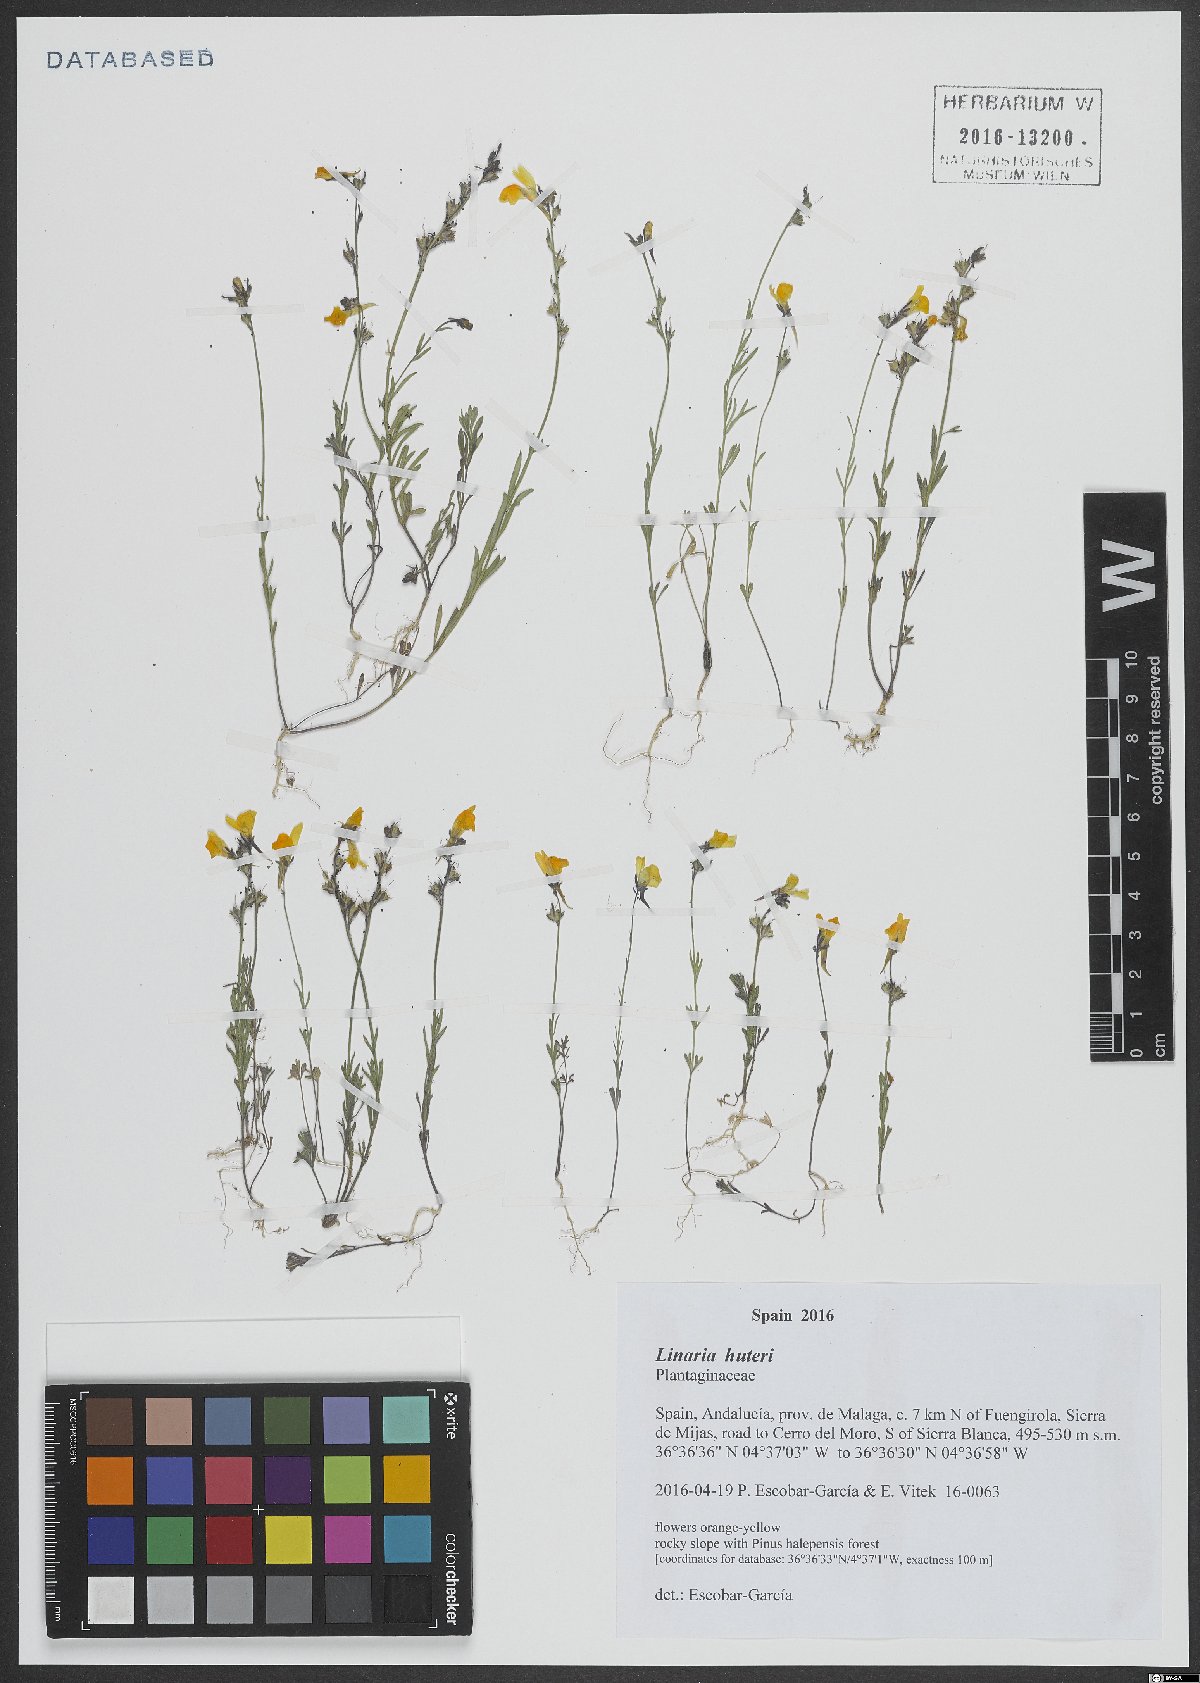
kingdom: Plantae
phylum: Tracheophyta
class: Magnoliopsida
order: Lamiales
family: Plantaginaceae
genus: Linaria
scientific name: Linaria huteri
